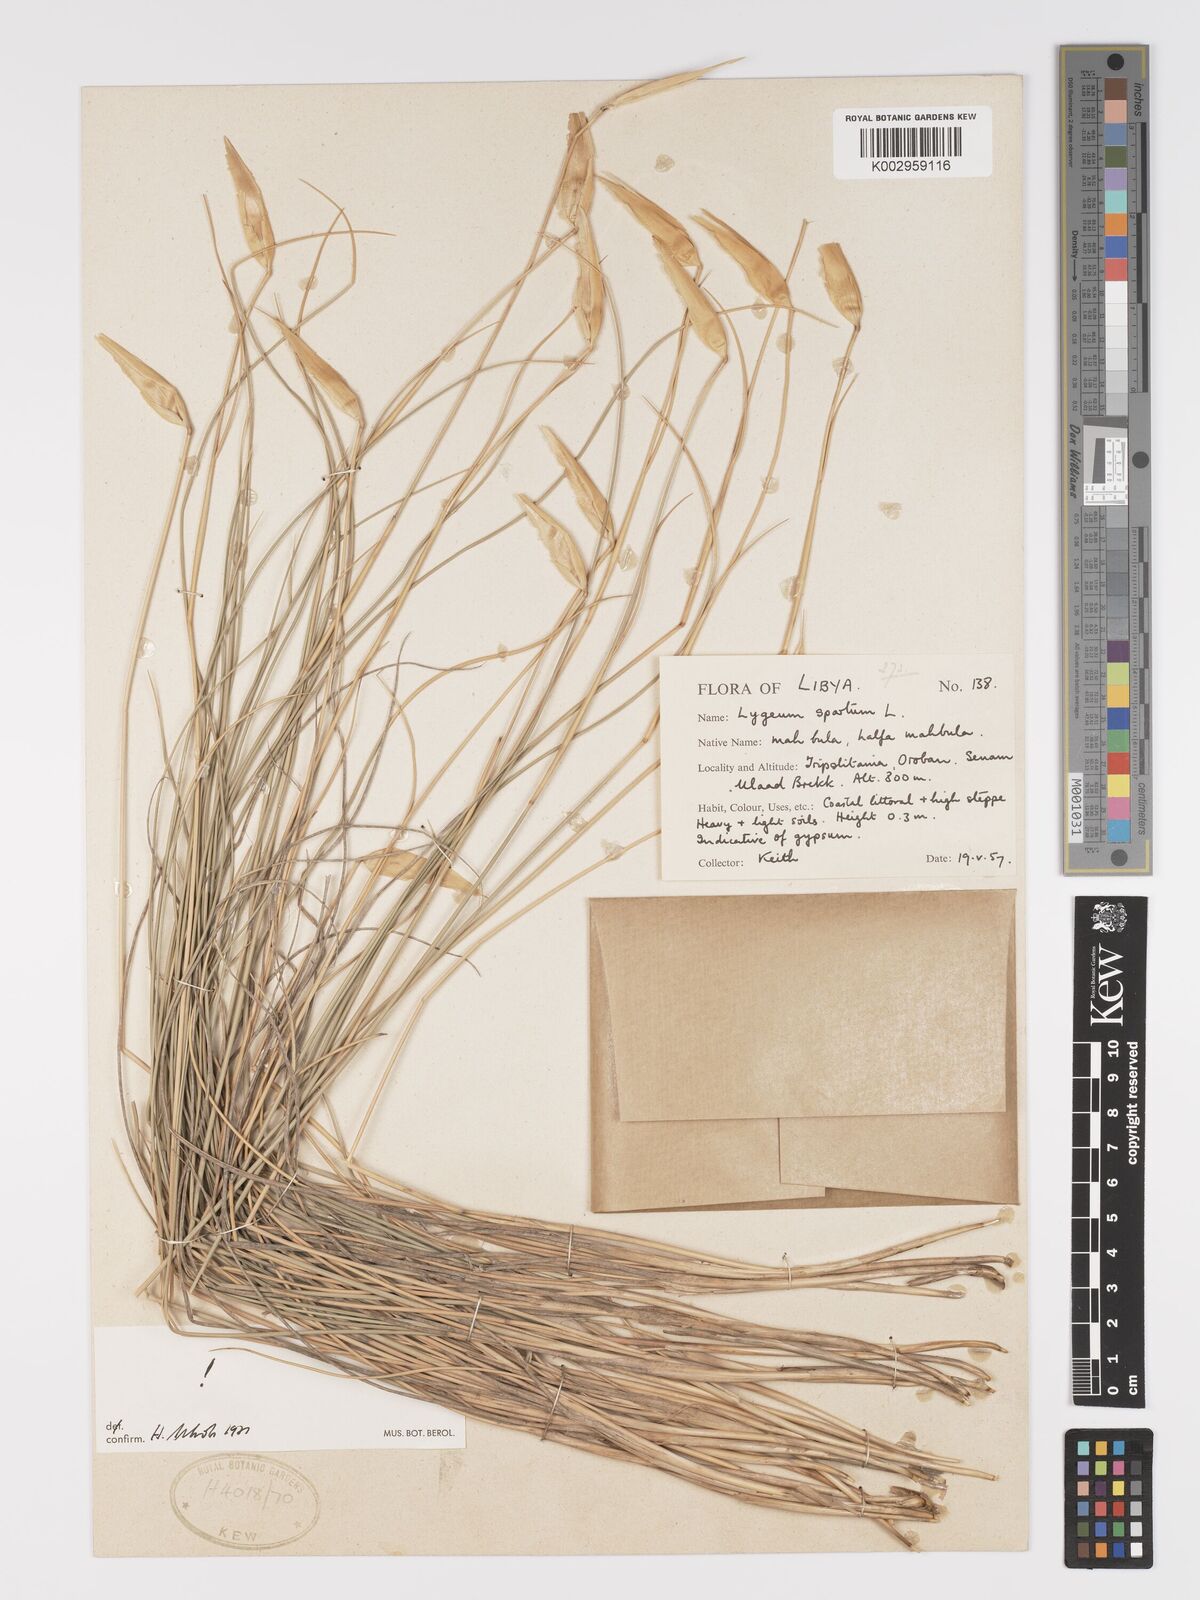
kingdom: Plantae
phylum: Tracheophyta
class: Liliopsida
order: Poales
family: Poaceae
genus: Lygeum
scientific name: Lygeum spartum
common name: Albardine
